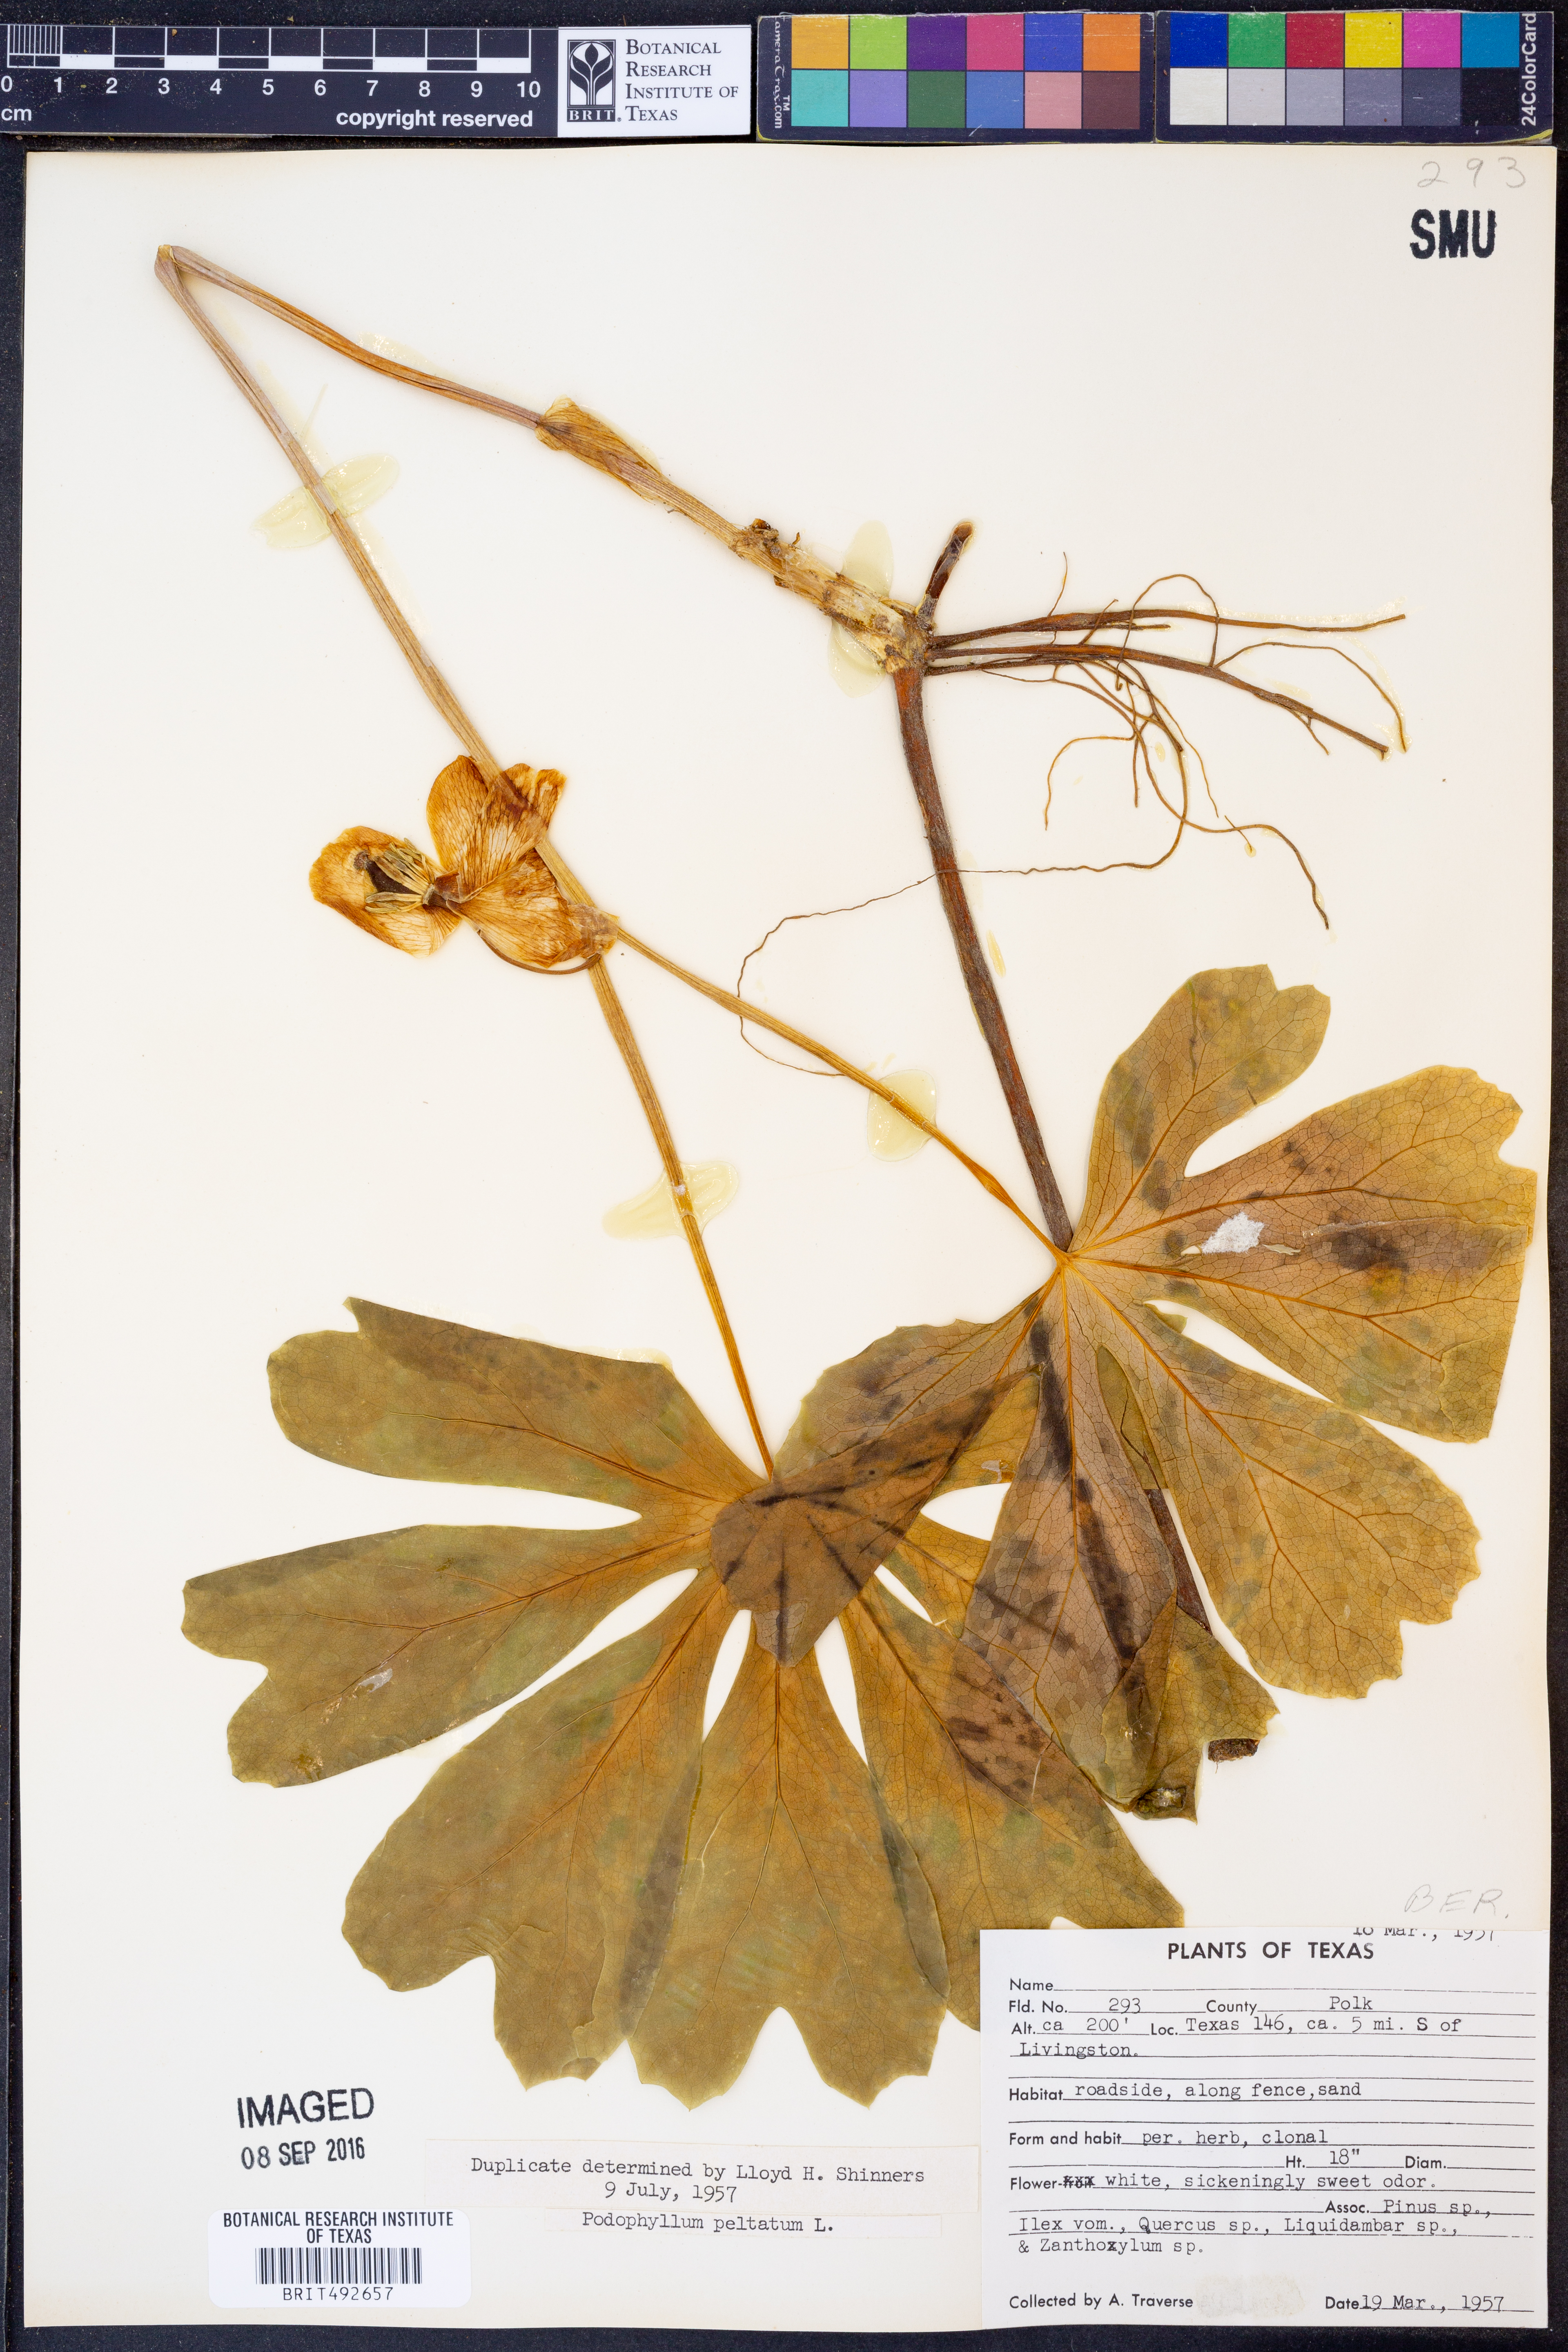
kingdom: Plantae
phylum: Tracheophyta
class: Magnoliopsida
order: Ranunculales
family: Berberidaceae
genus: Podophyllum
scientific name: Podophyllum peltatum
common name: Wild mandrake
